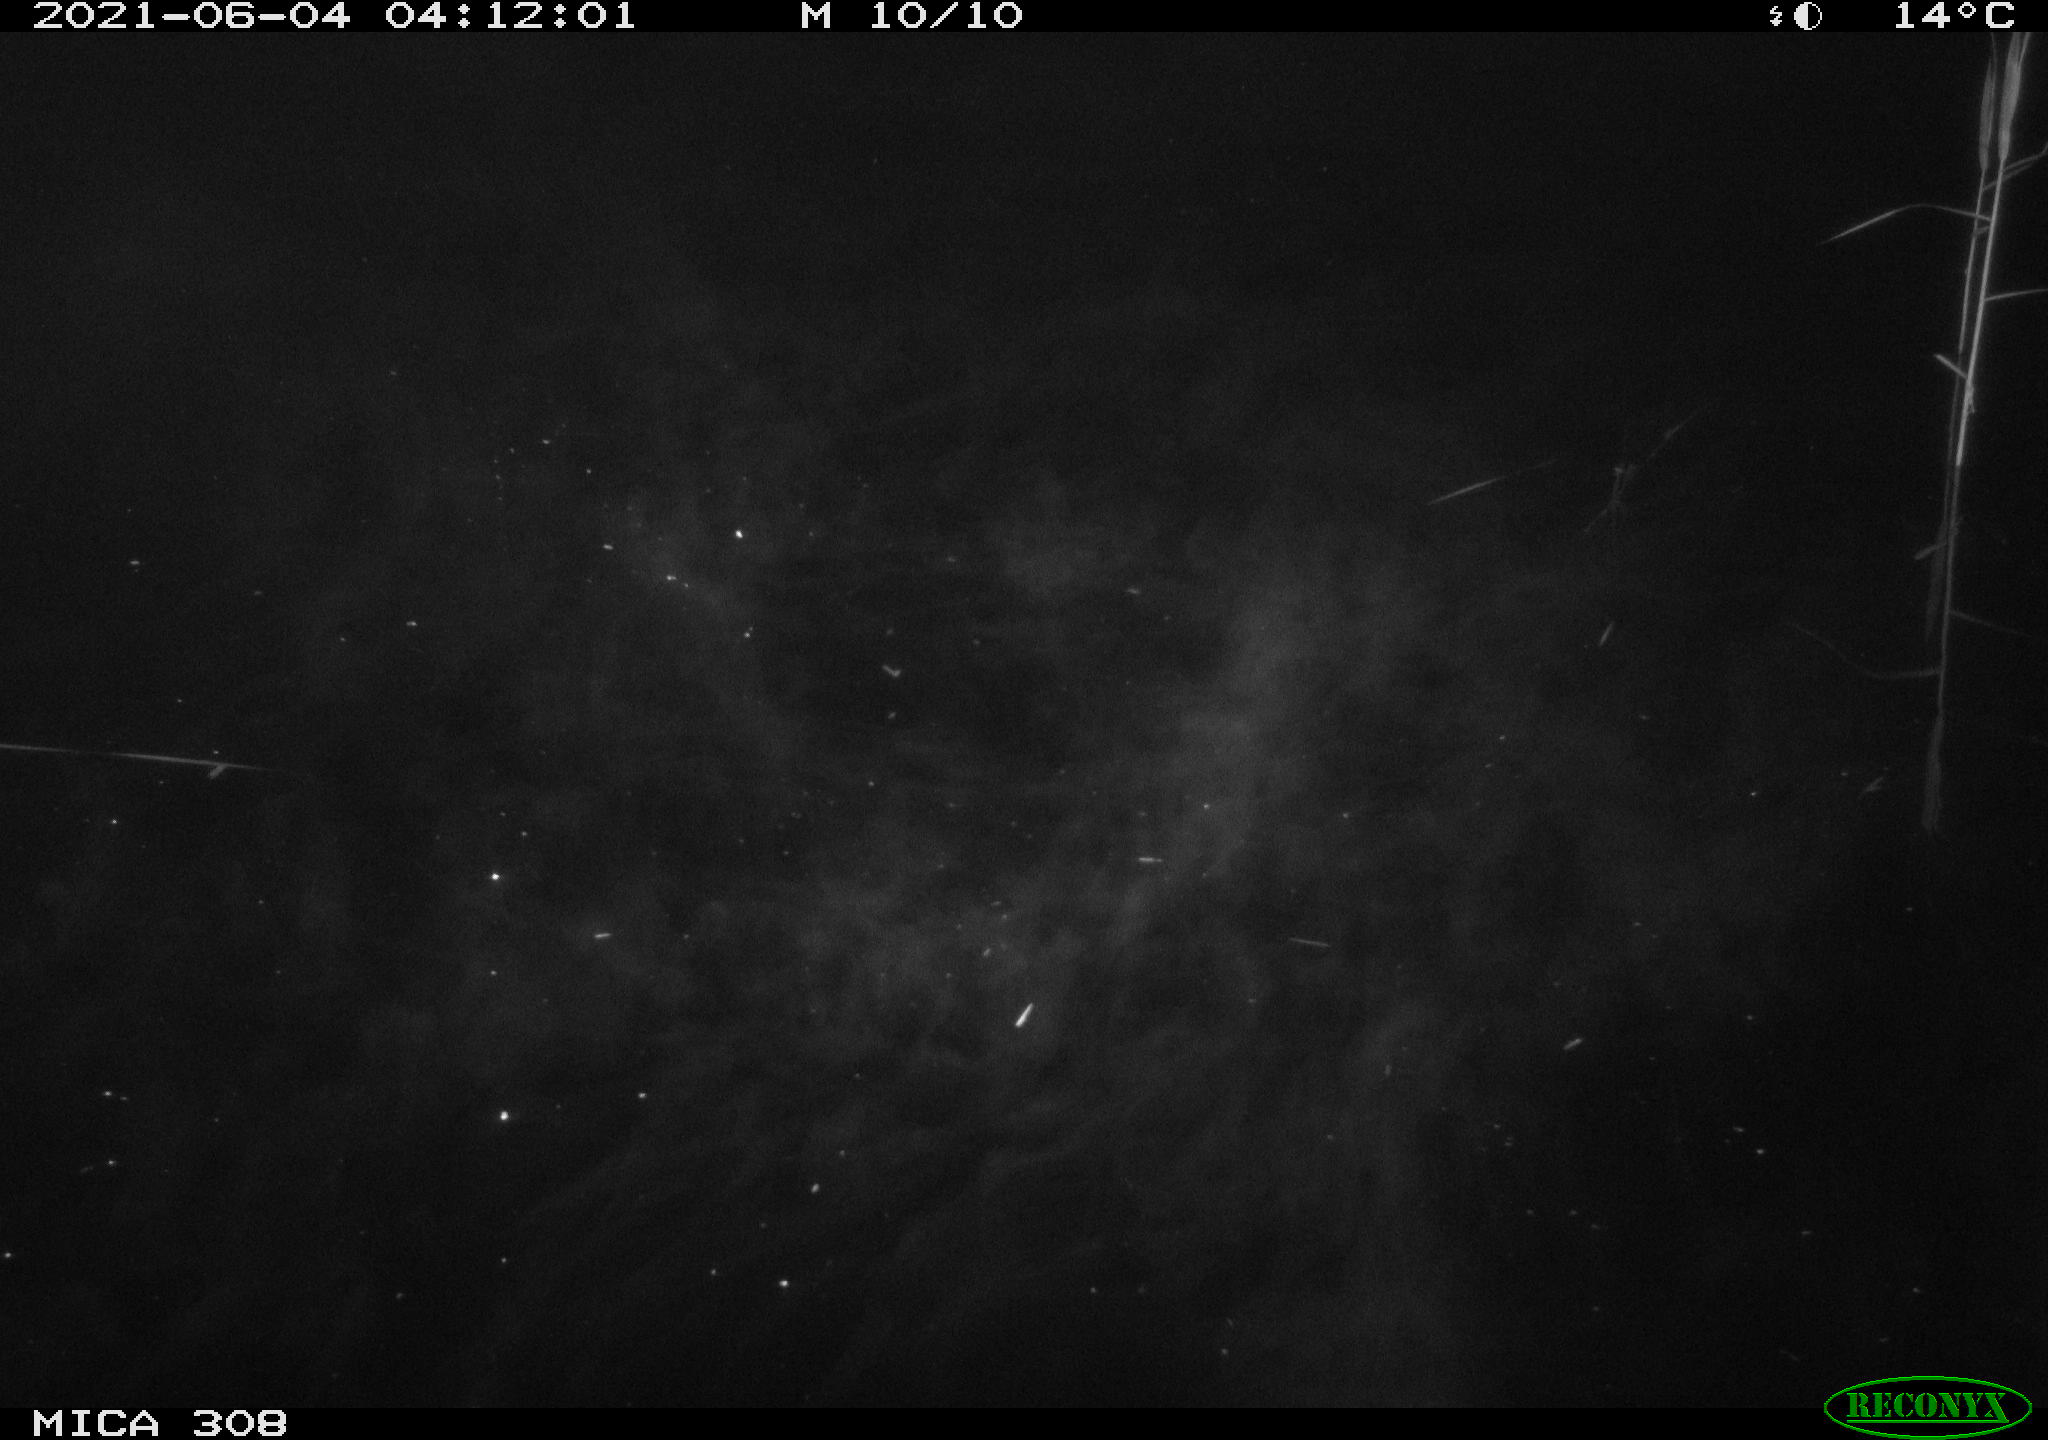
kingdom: Animalia
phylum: Chordata
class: Aves
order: Anseriformes
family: Anatidae
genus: Anas
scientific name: Anas platyrhynchos
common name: Mallard
